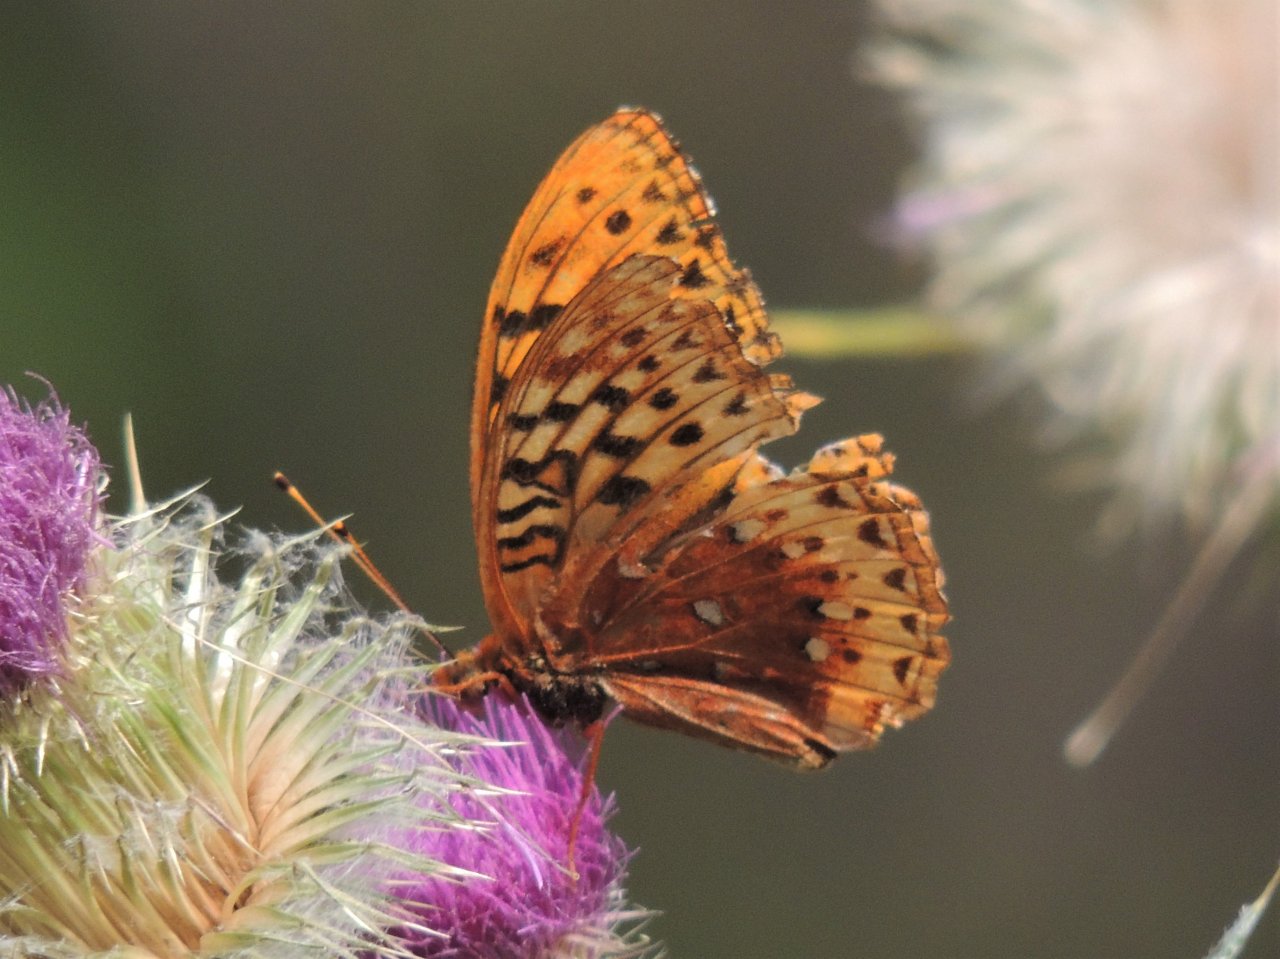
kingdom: Animalia
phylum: Arthropoda
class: Insecta
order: Lepidoptera
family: Nymphalidae
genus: Speyeria
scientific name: Speyeria cybele
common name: Great Spangled Fritillary
